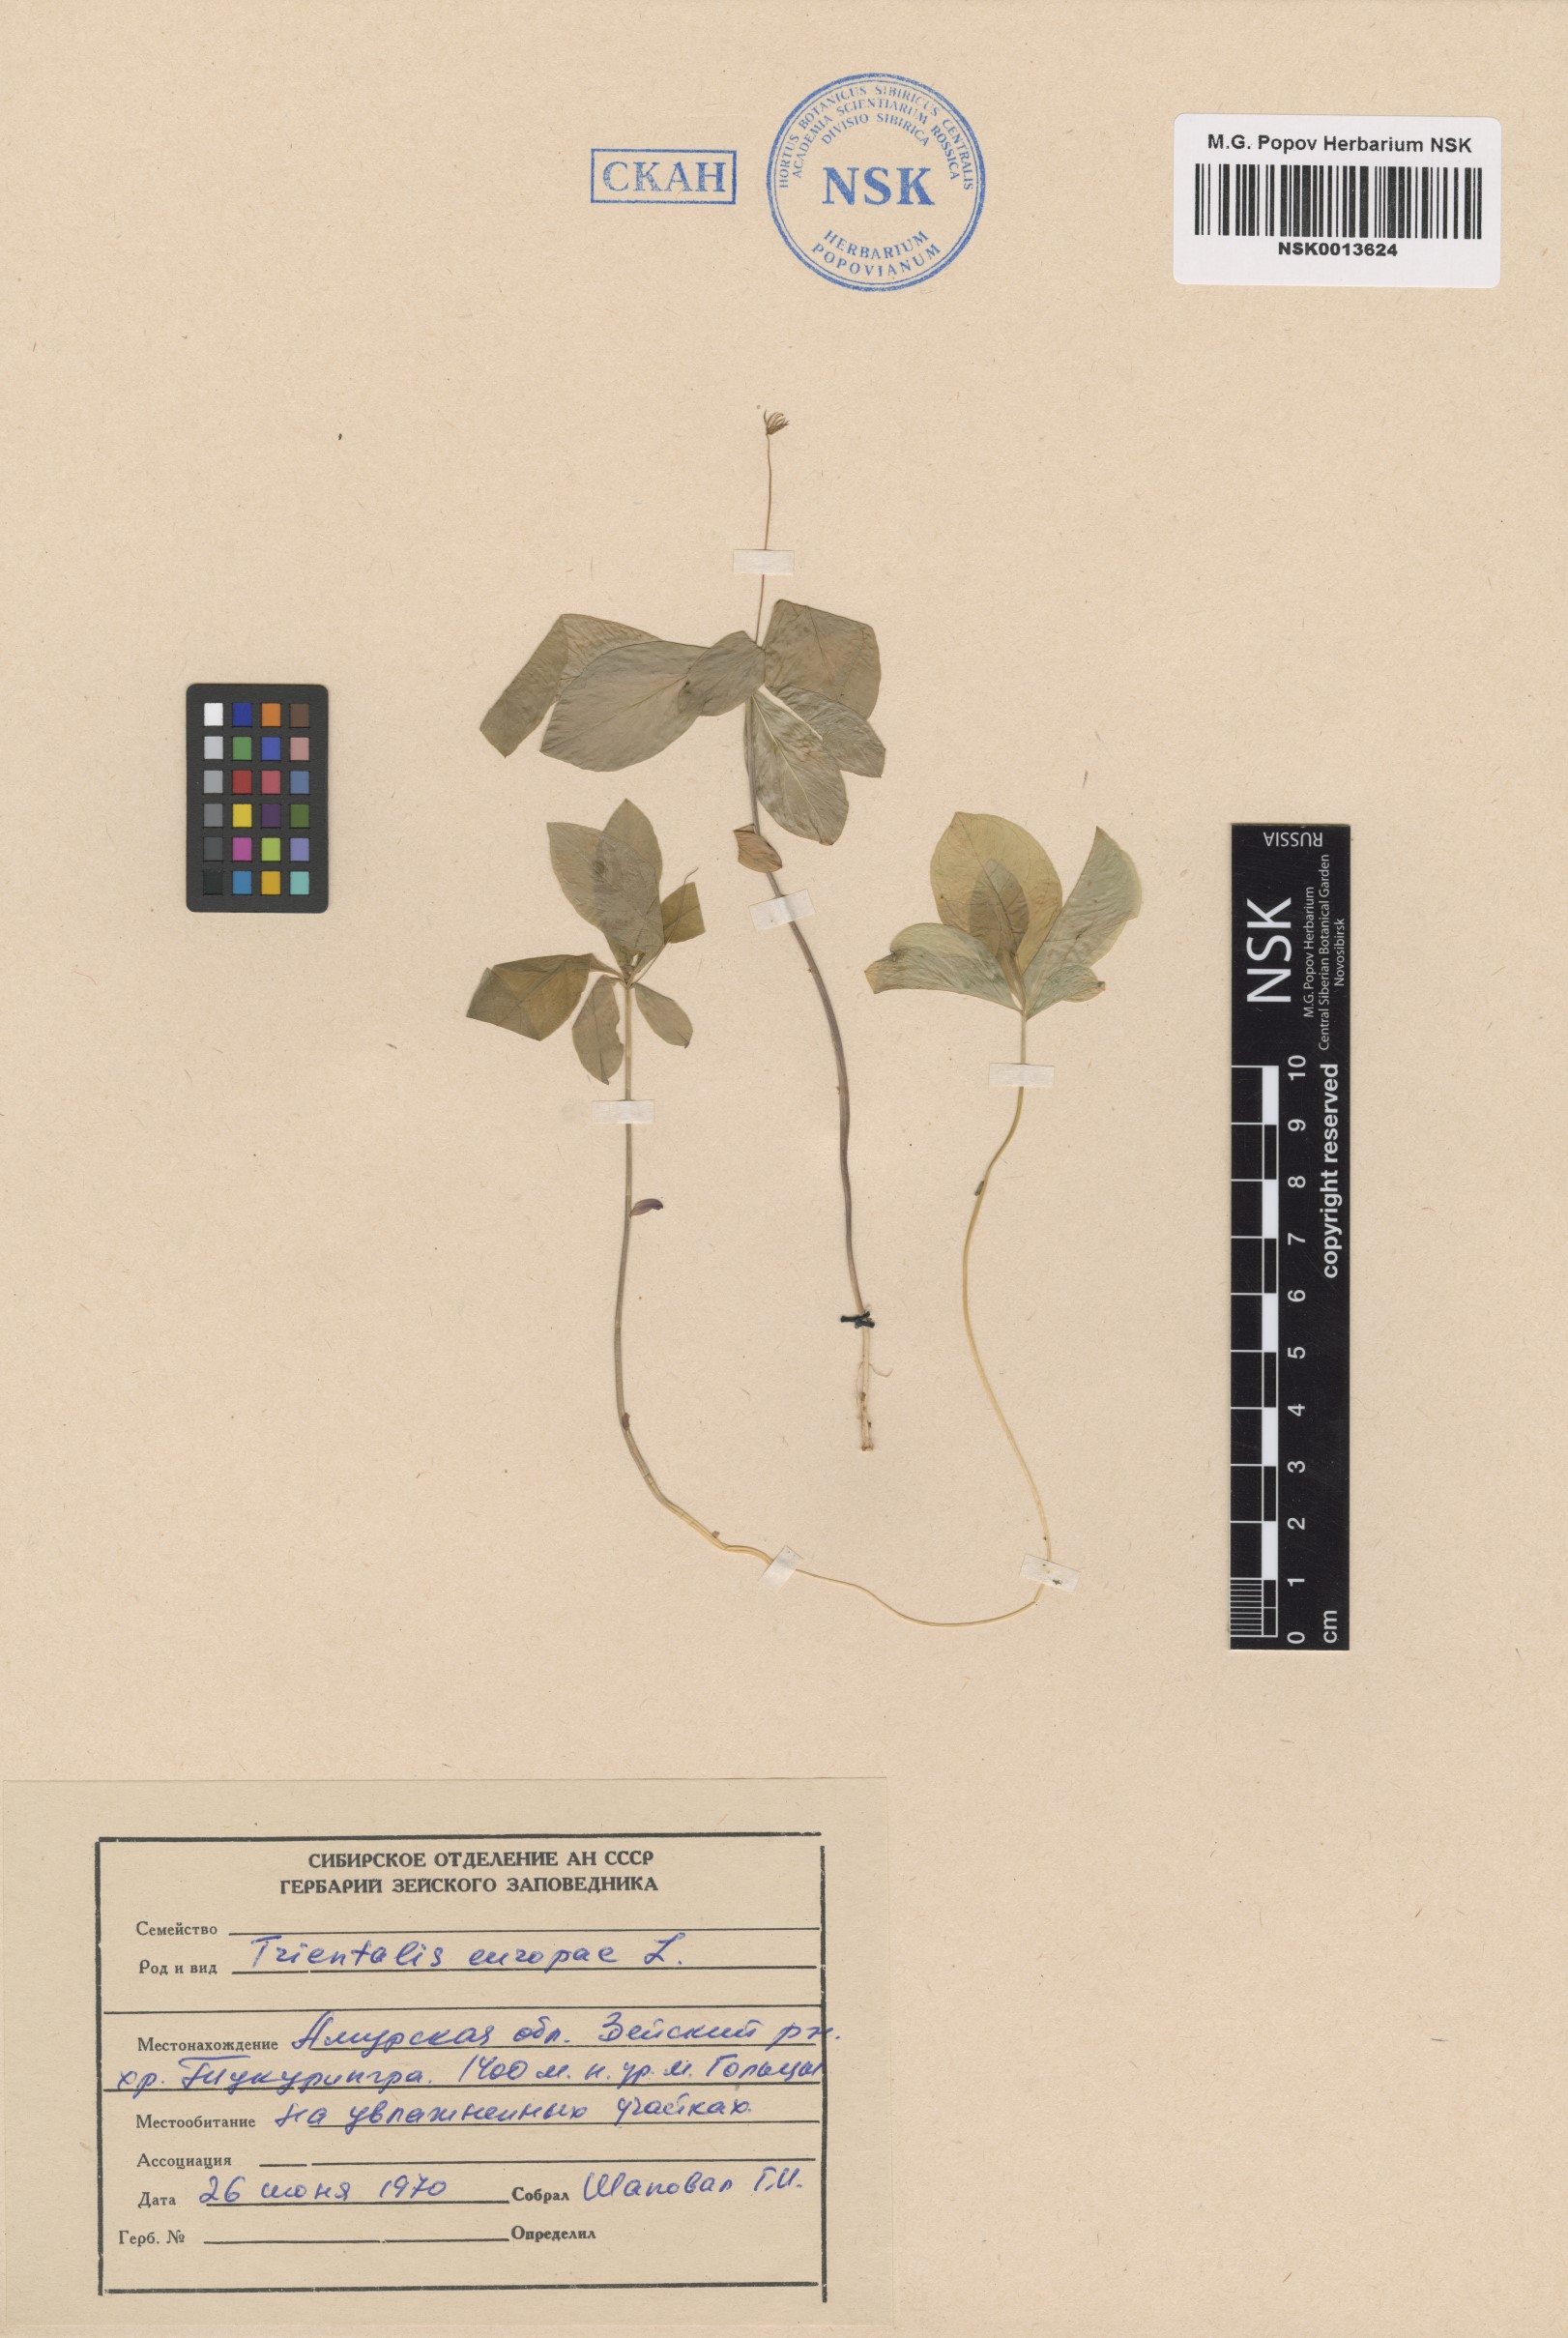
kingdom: Plantae
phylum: Tracheophyta
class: Magnoliopsida
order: Ericales
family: Primulaceae
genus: Lysimachia
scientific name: Lysimachia europaea
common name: Arctic starflower
